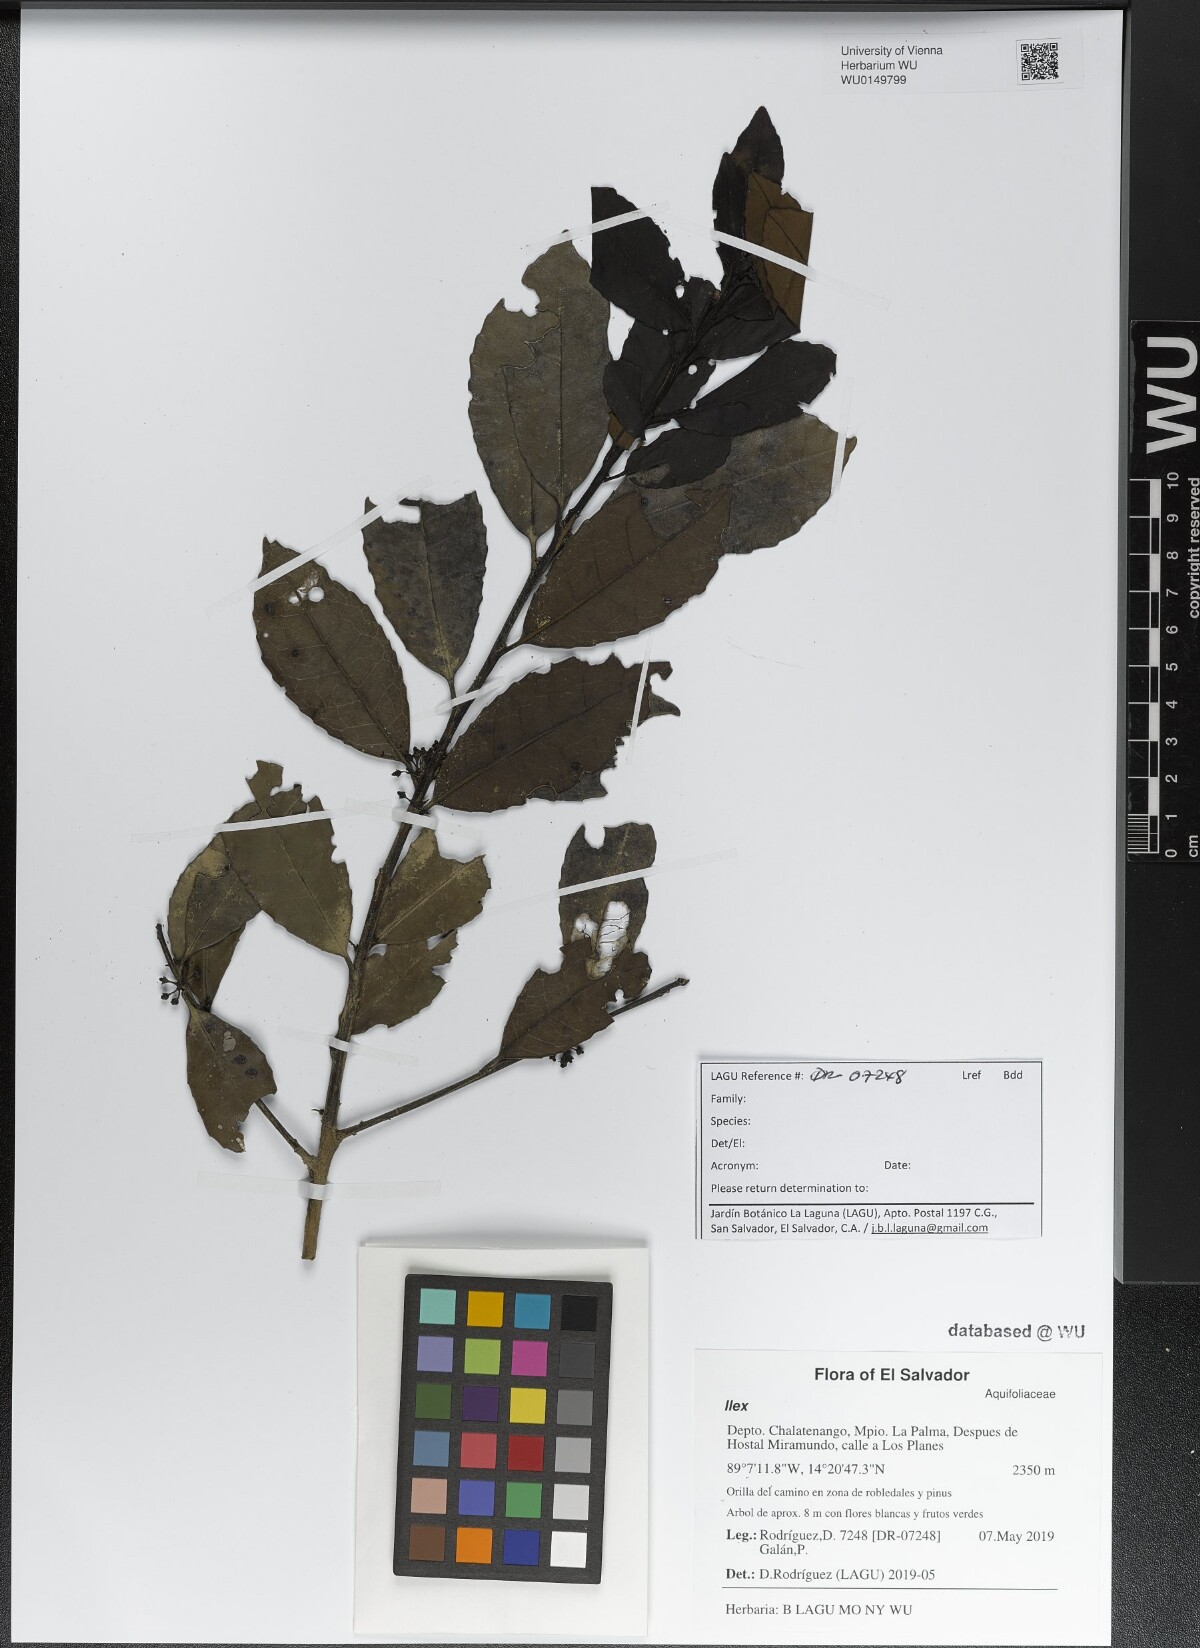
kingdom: Plantae
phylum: Tracheophyta
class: Magnoliopsida
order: Aquifoliales
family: Aquifoliaceae
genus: Ilex
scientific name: Ilex
